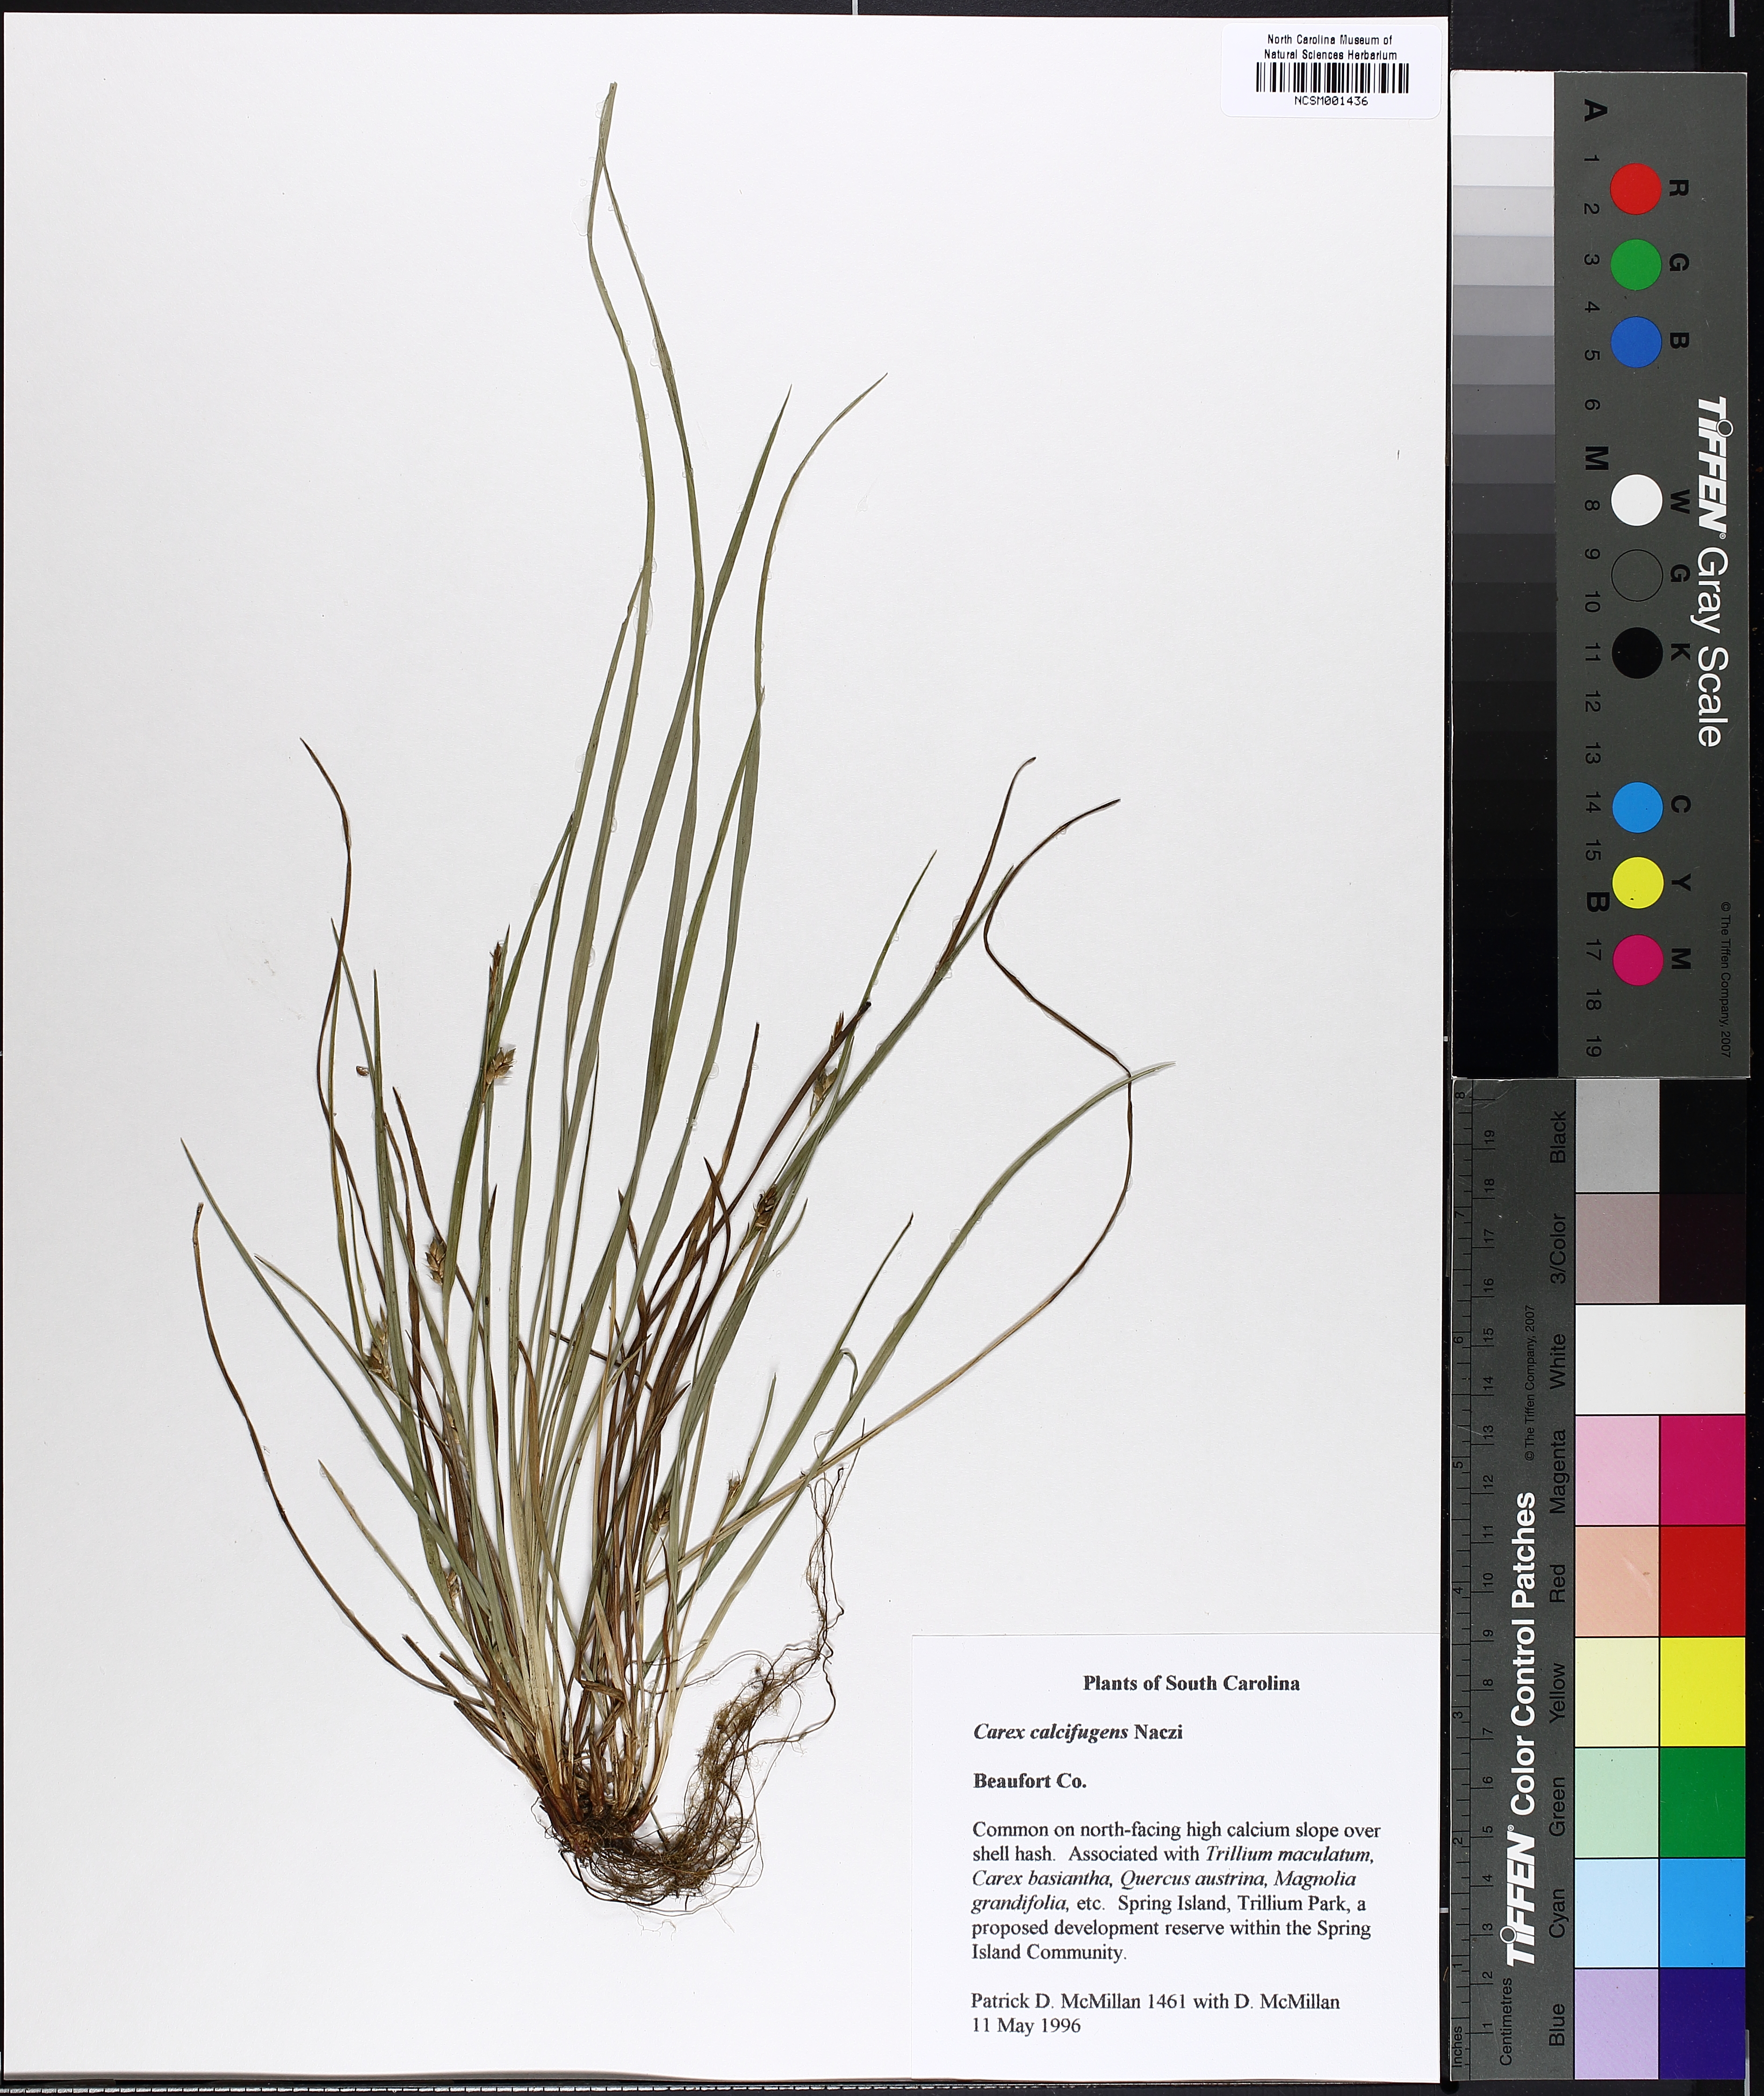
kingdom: Plantae
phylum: Tracheophyta
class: Liliopsida
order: Poales
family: Cyperaceae
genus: Carex
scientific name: Carex calcifugens
